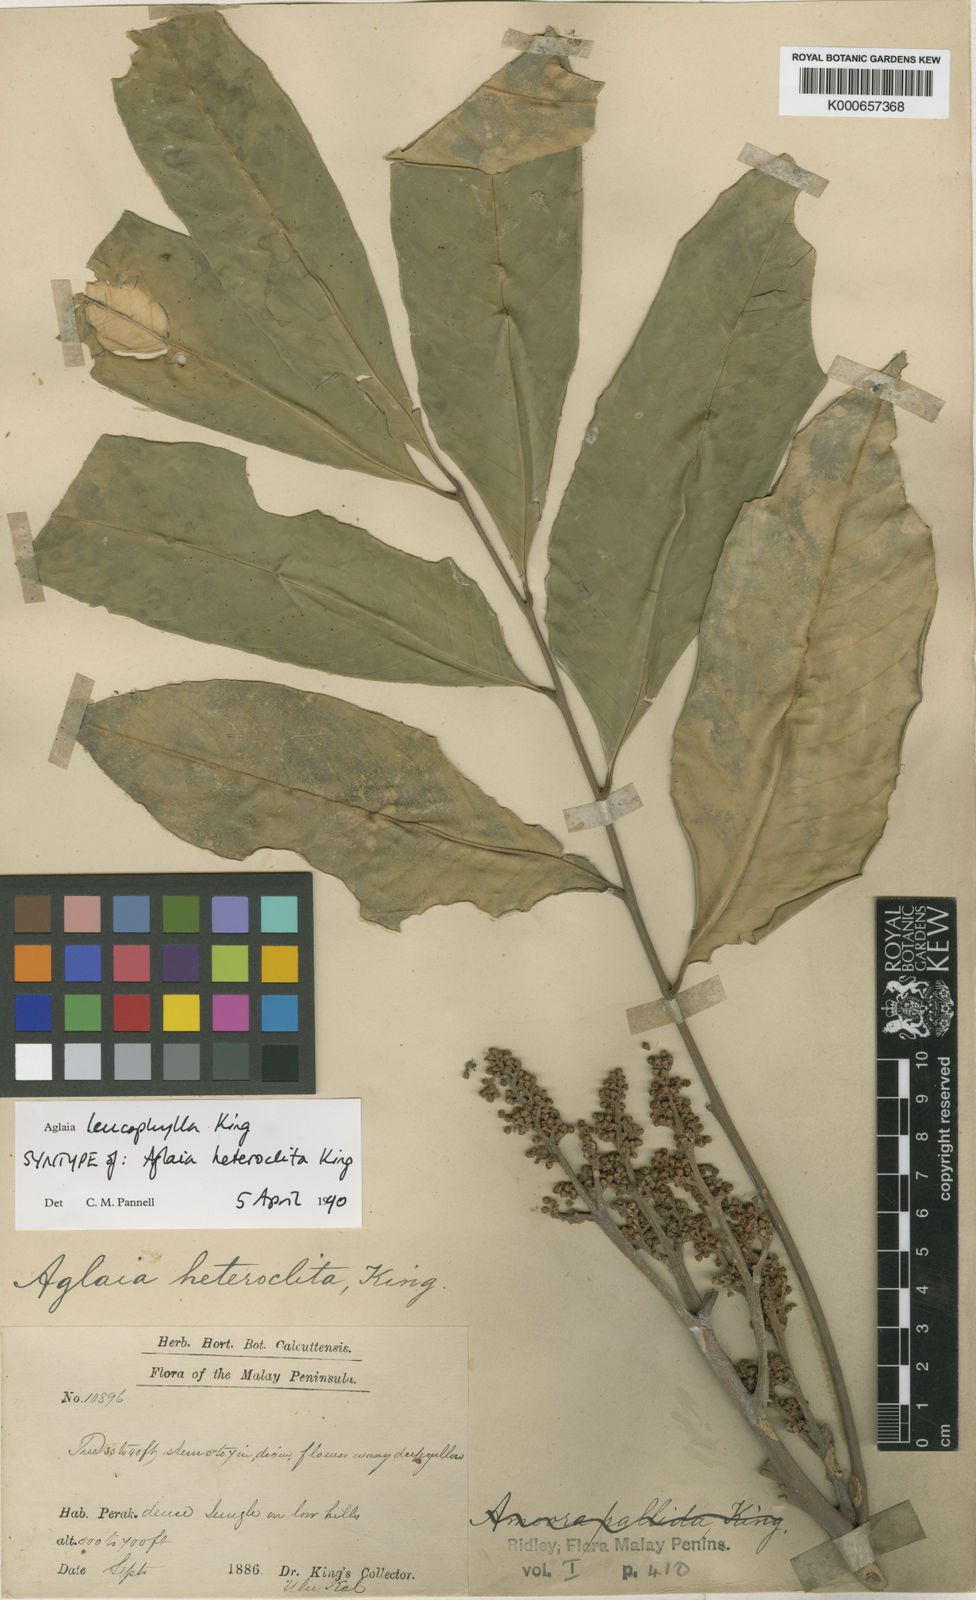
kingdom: Plantae
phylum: Tracheophyta
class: Magnoliopsida
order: Sapindales
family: Meliaceae
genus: Aglaia
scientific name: Aglaia leucophylla
